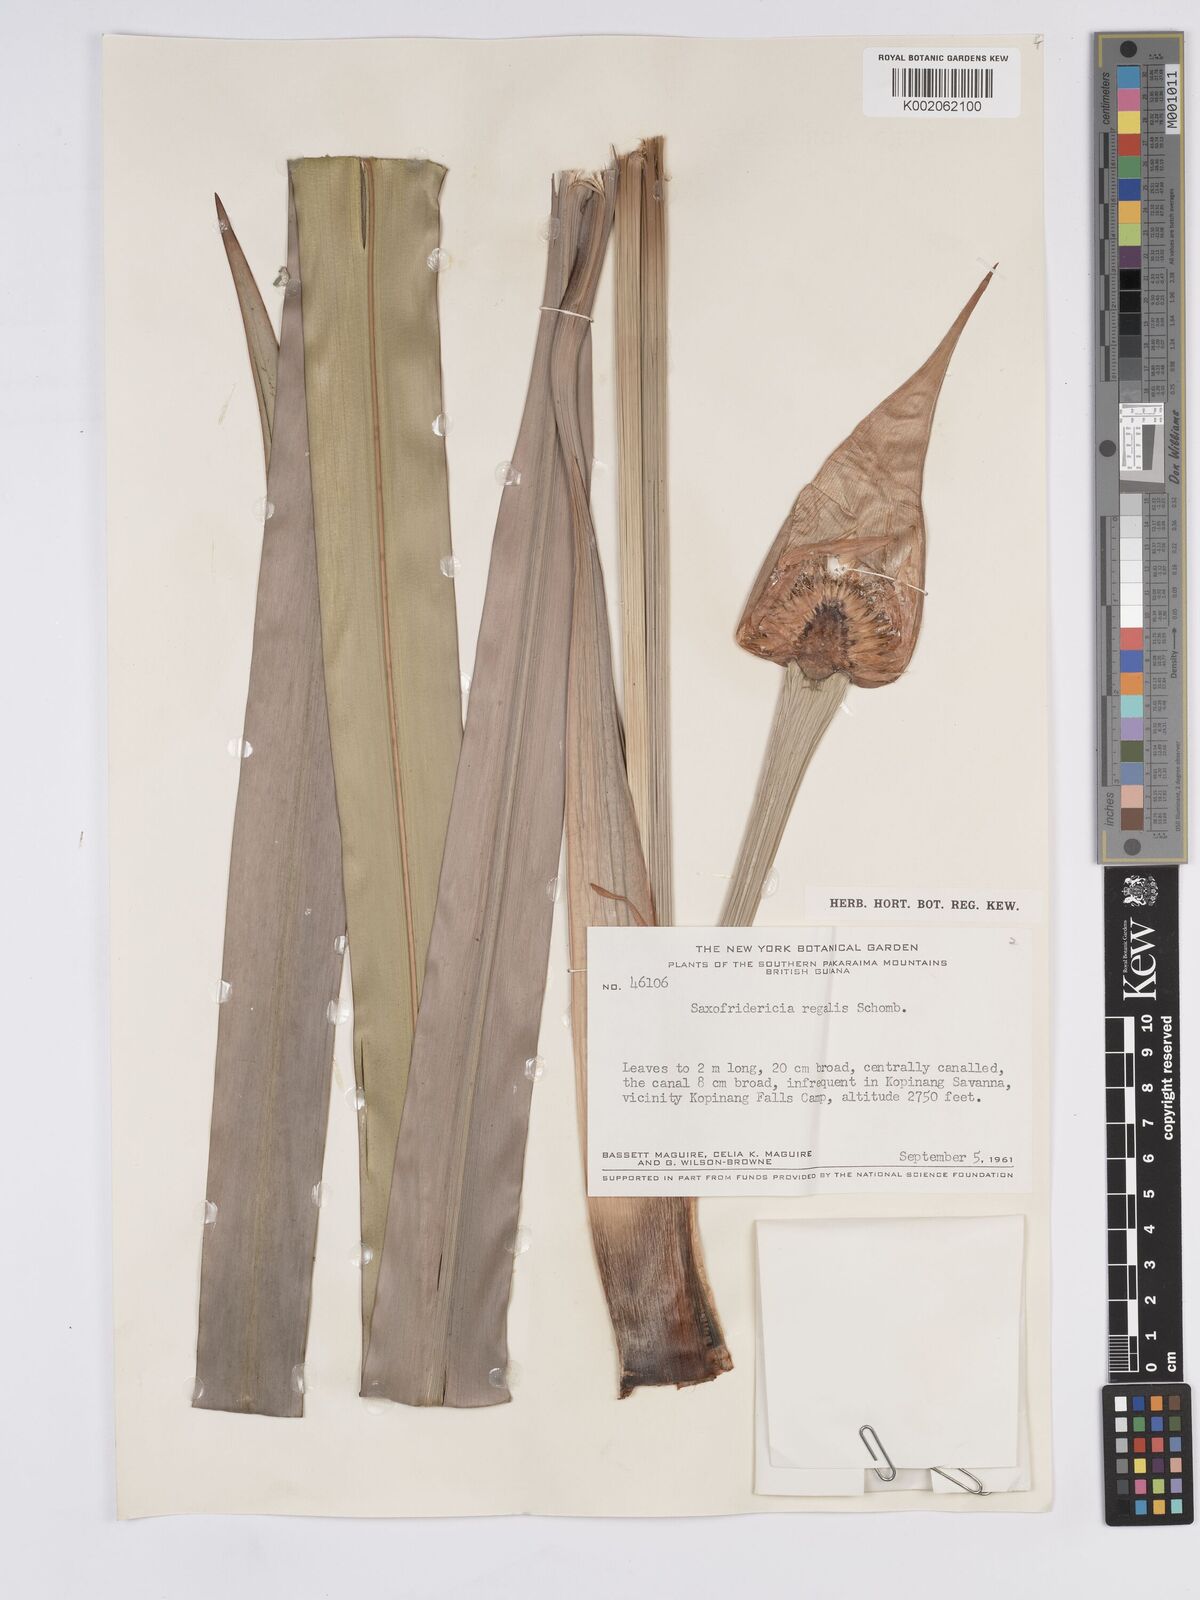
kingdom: Plantae
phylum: Tracheophyta
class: Liliopsida
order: Poales
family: Rapateaceae
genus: Saxofridericia
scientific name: Saxofridericia regalis
